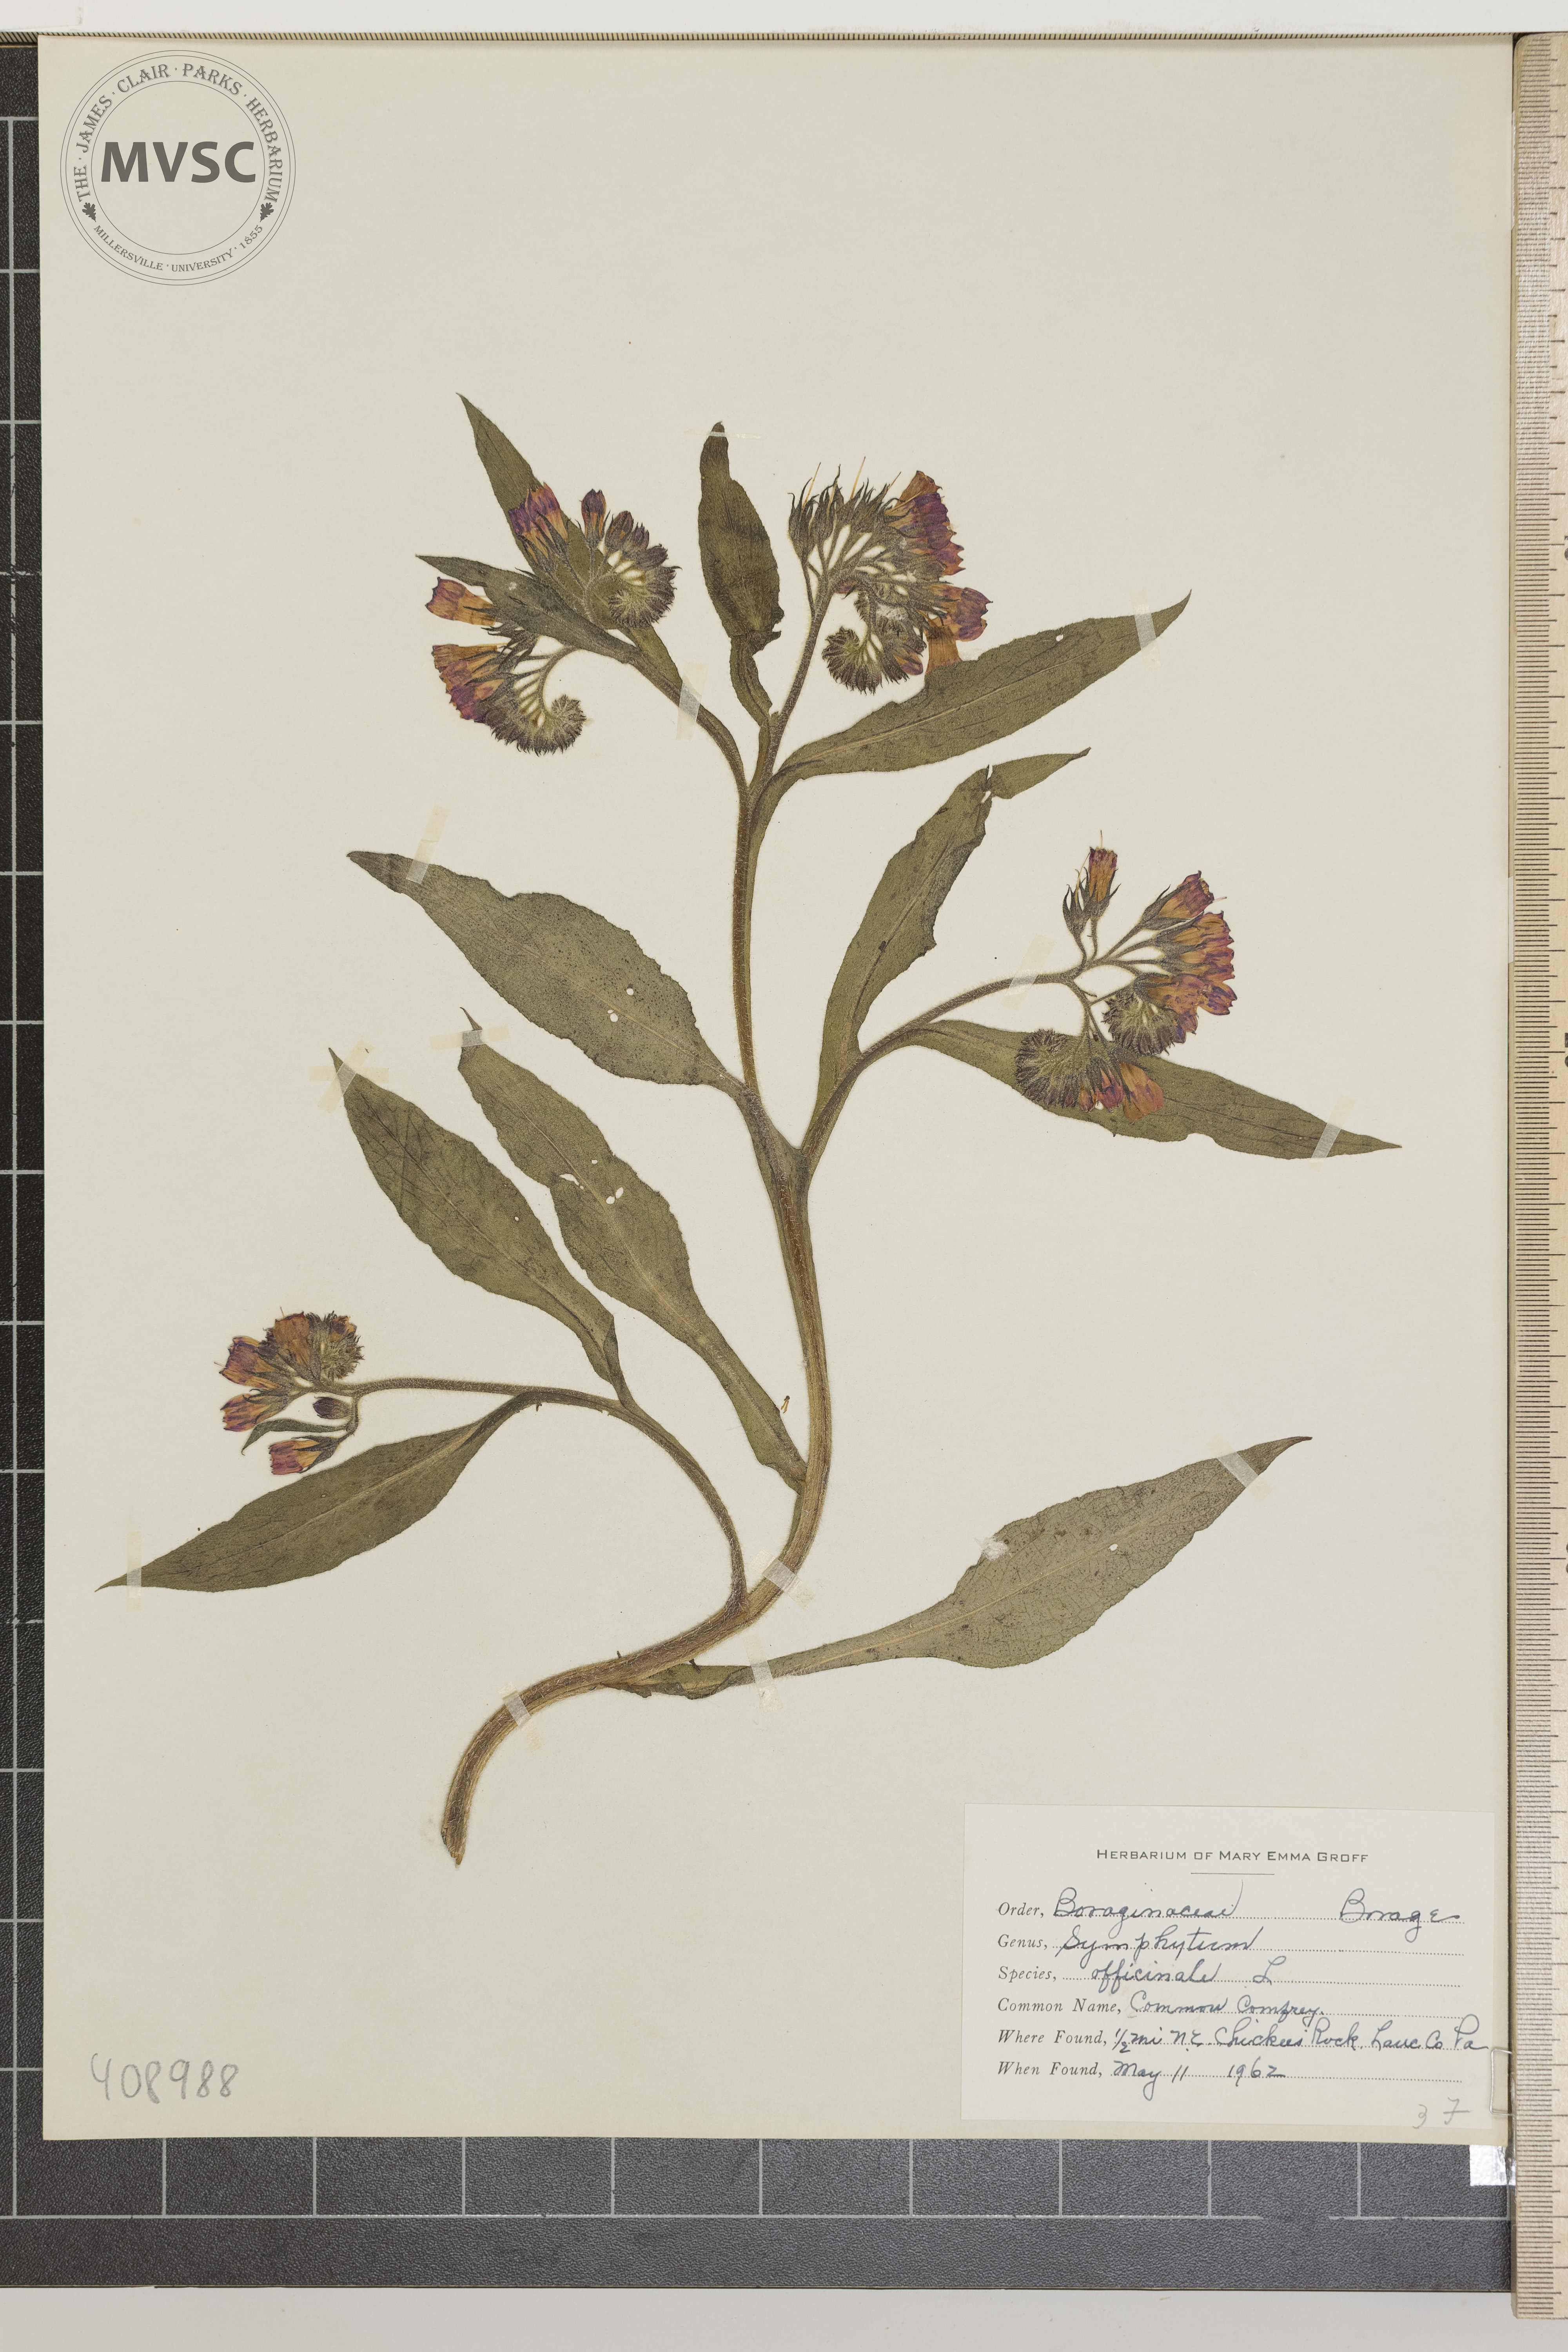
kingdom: Plantae
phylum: Tracheophyta
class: Magnoliopsida
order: Boraginales
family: Boraginaceae
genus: Symphytum
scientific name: Symphytum officinale
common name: Common Comfrey
